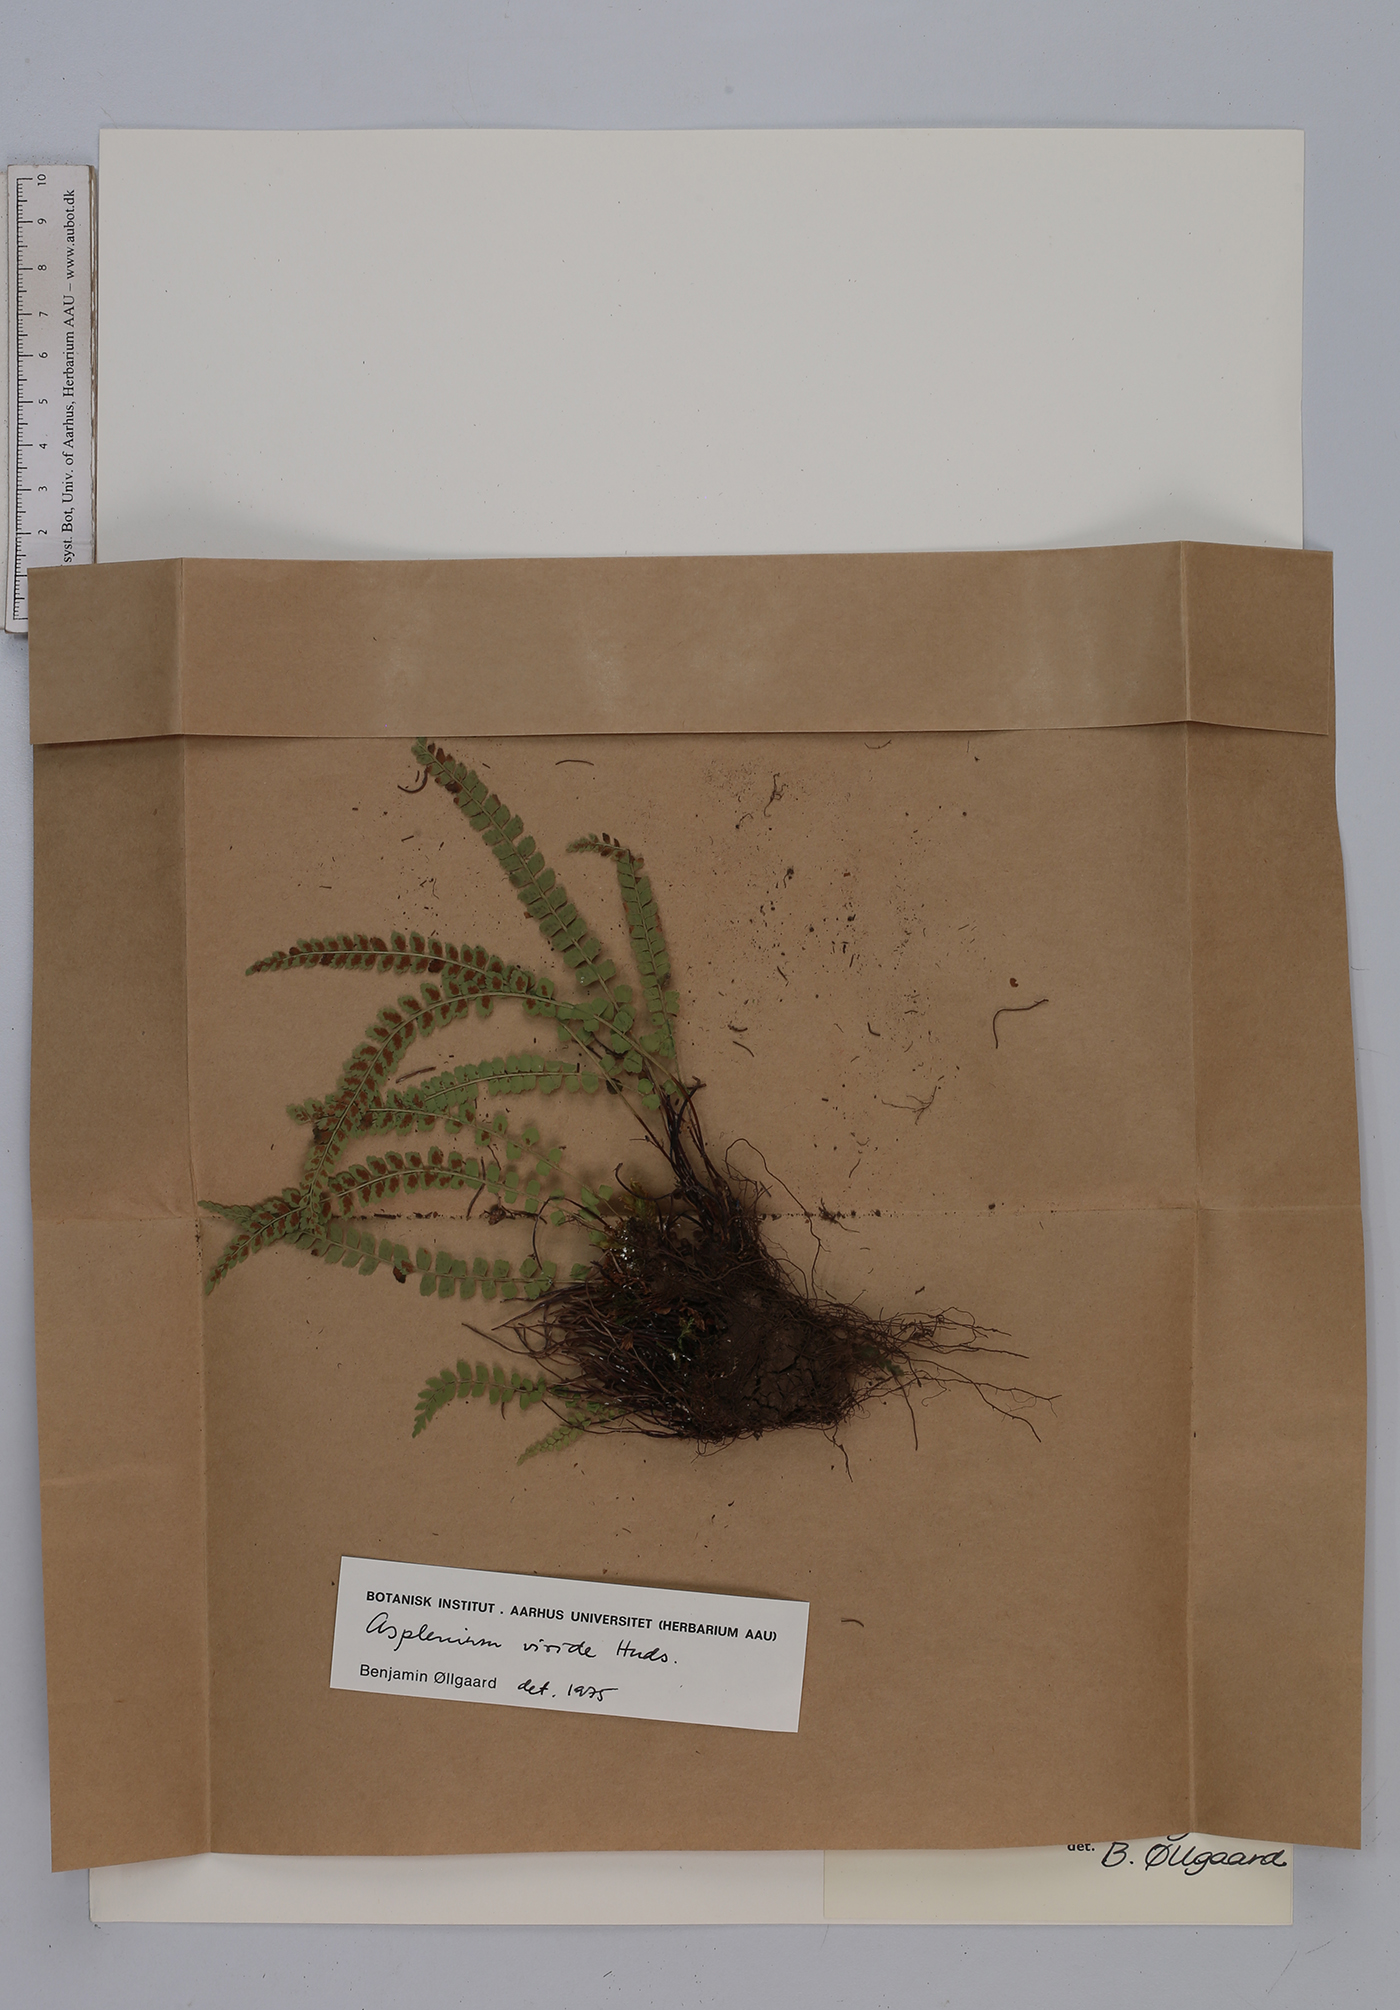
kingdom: Plantae
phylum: Tracheophyta
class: Polypodiopsida
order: Polypodiales
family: Aspleniaceae
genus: Asplenium
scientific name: Asplenium viride
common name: Green spleenwort
